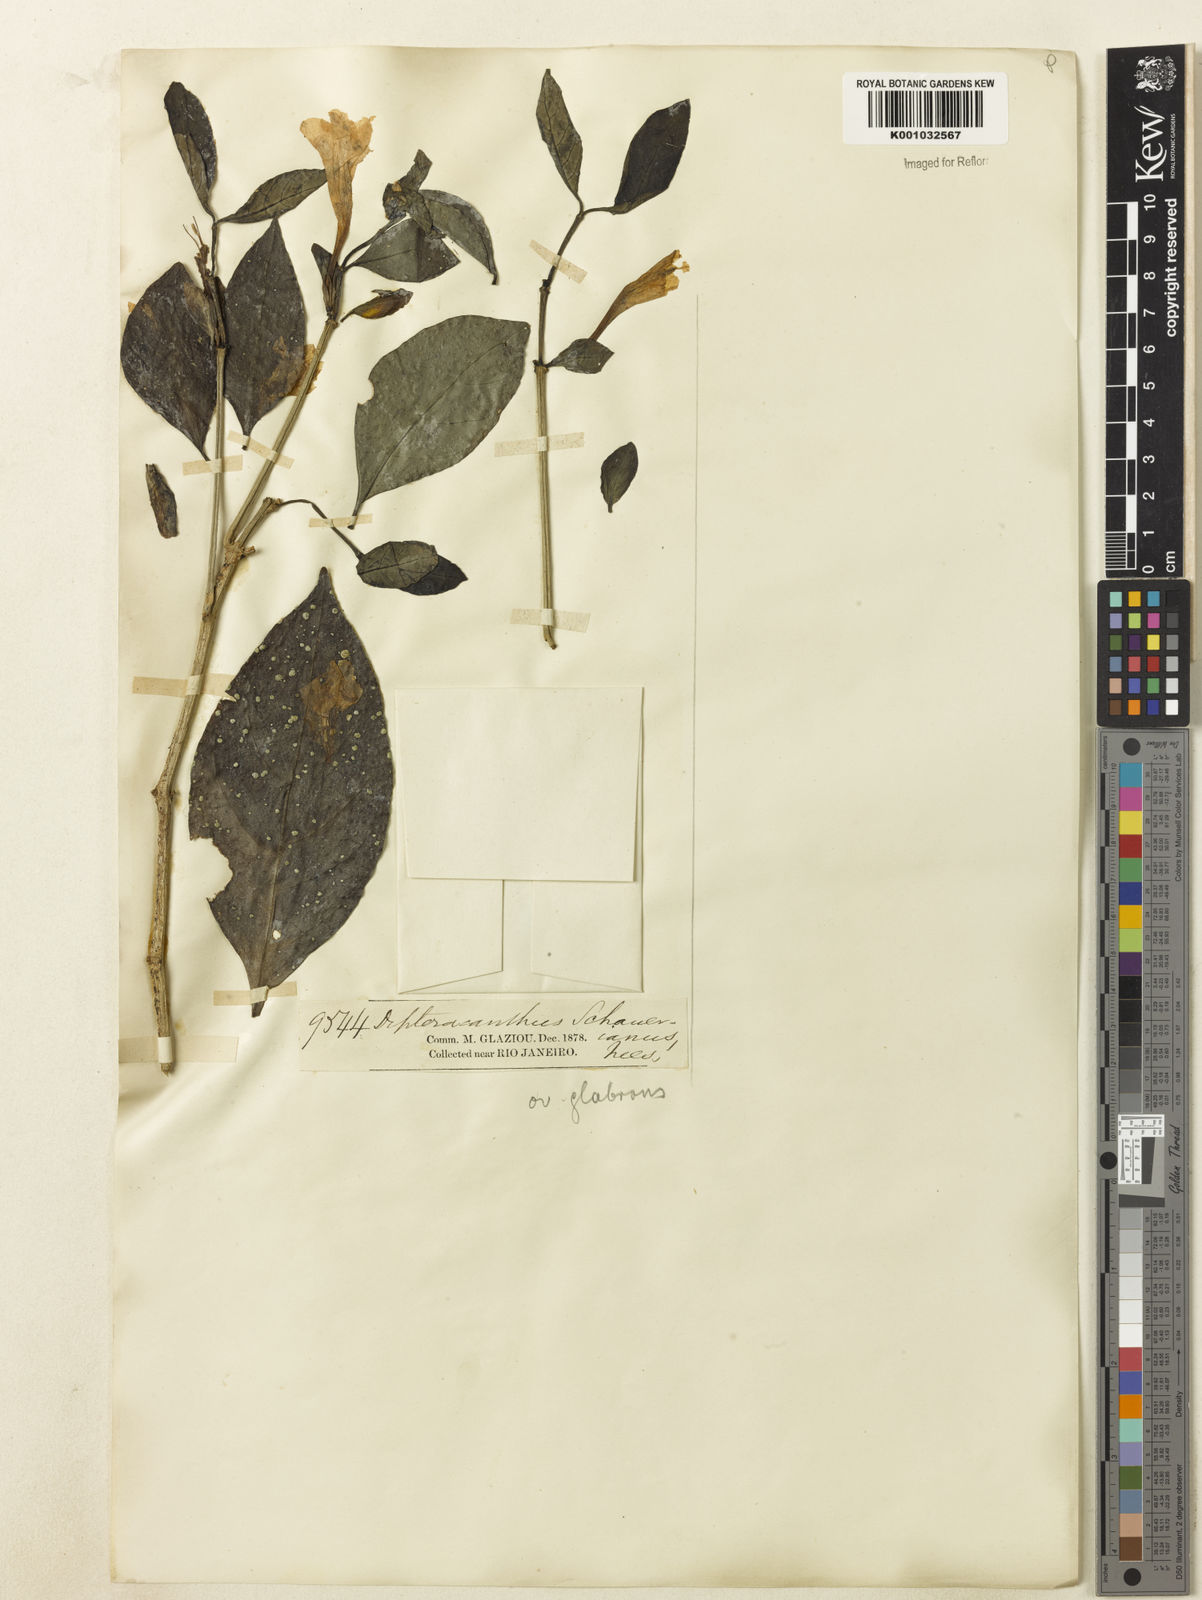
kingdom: Plantae
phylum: Tracheophyta
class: Magnoliopsida
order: Lamiales
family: Acanthaceae
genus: Ruellia
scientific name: Ruellia
